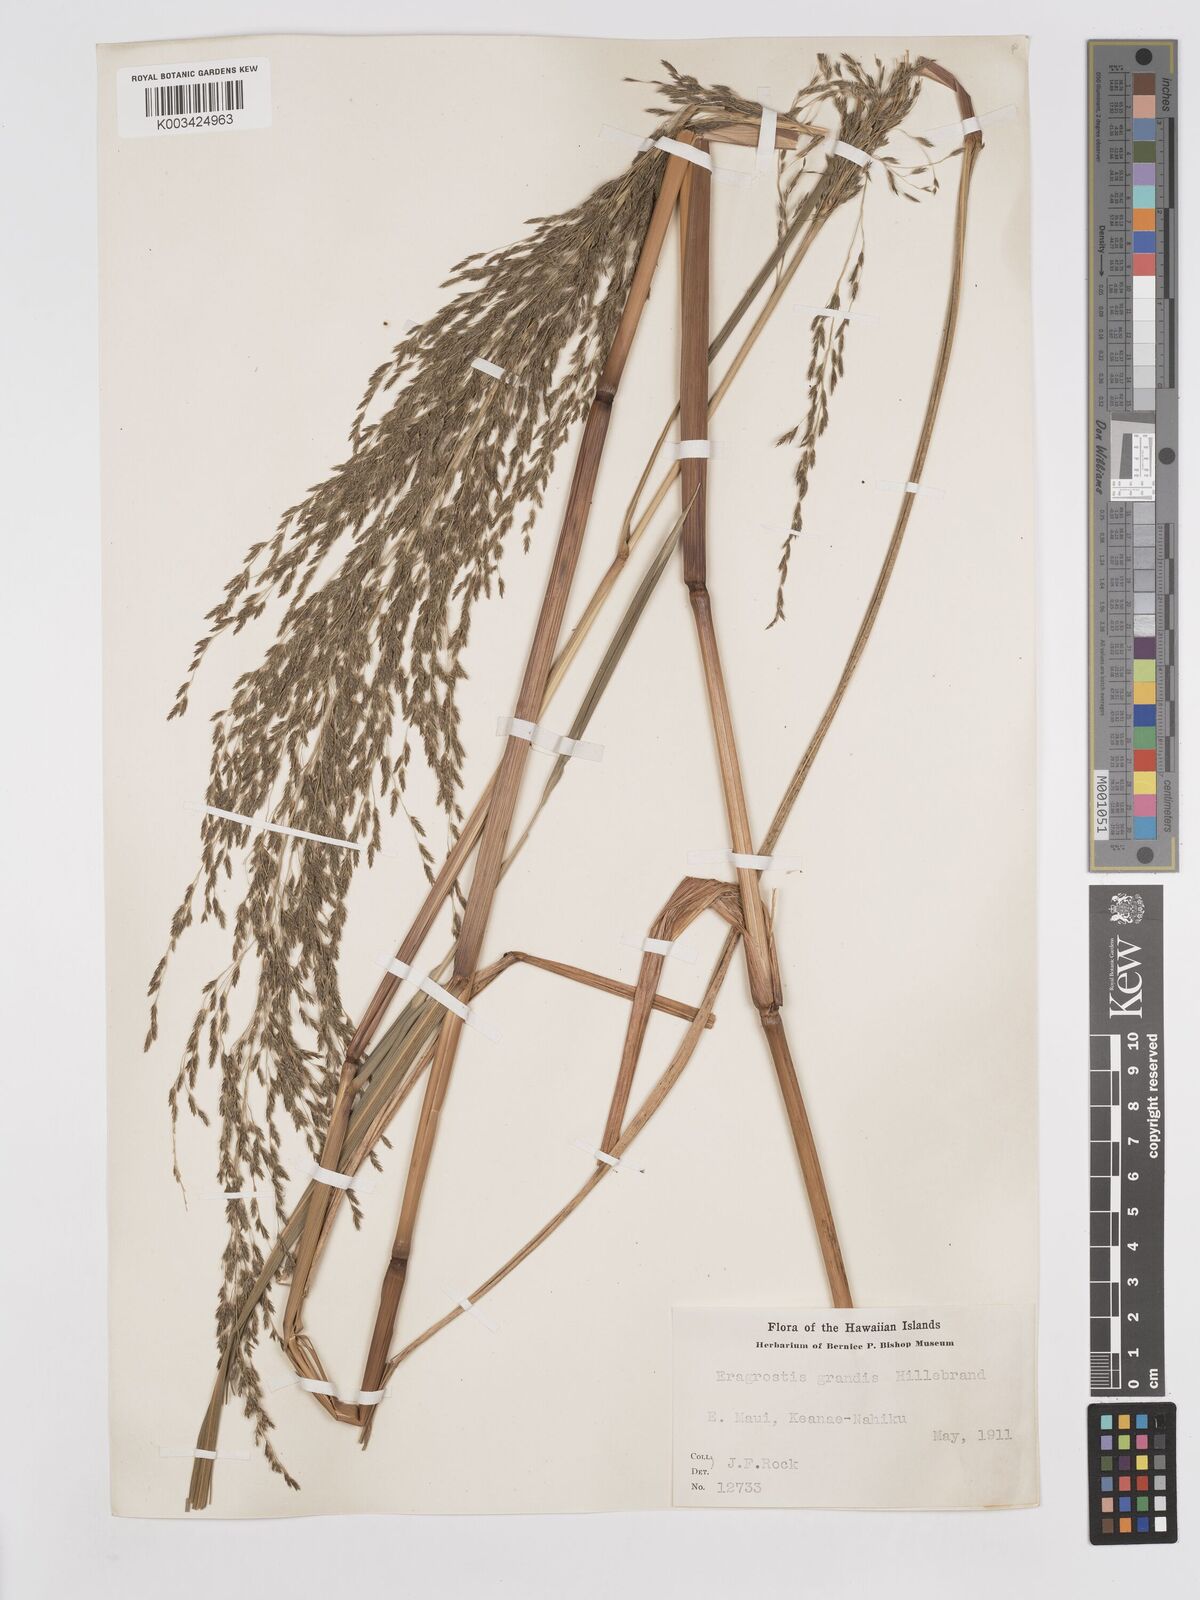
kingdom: Plantae
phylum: Tracheophyta
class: Liliopsida
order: Poales
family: Poaceae
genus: Eragrostis
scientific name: Eragrostis grandis
